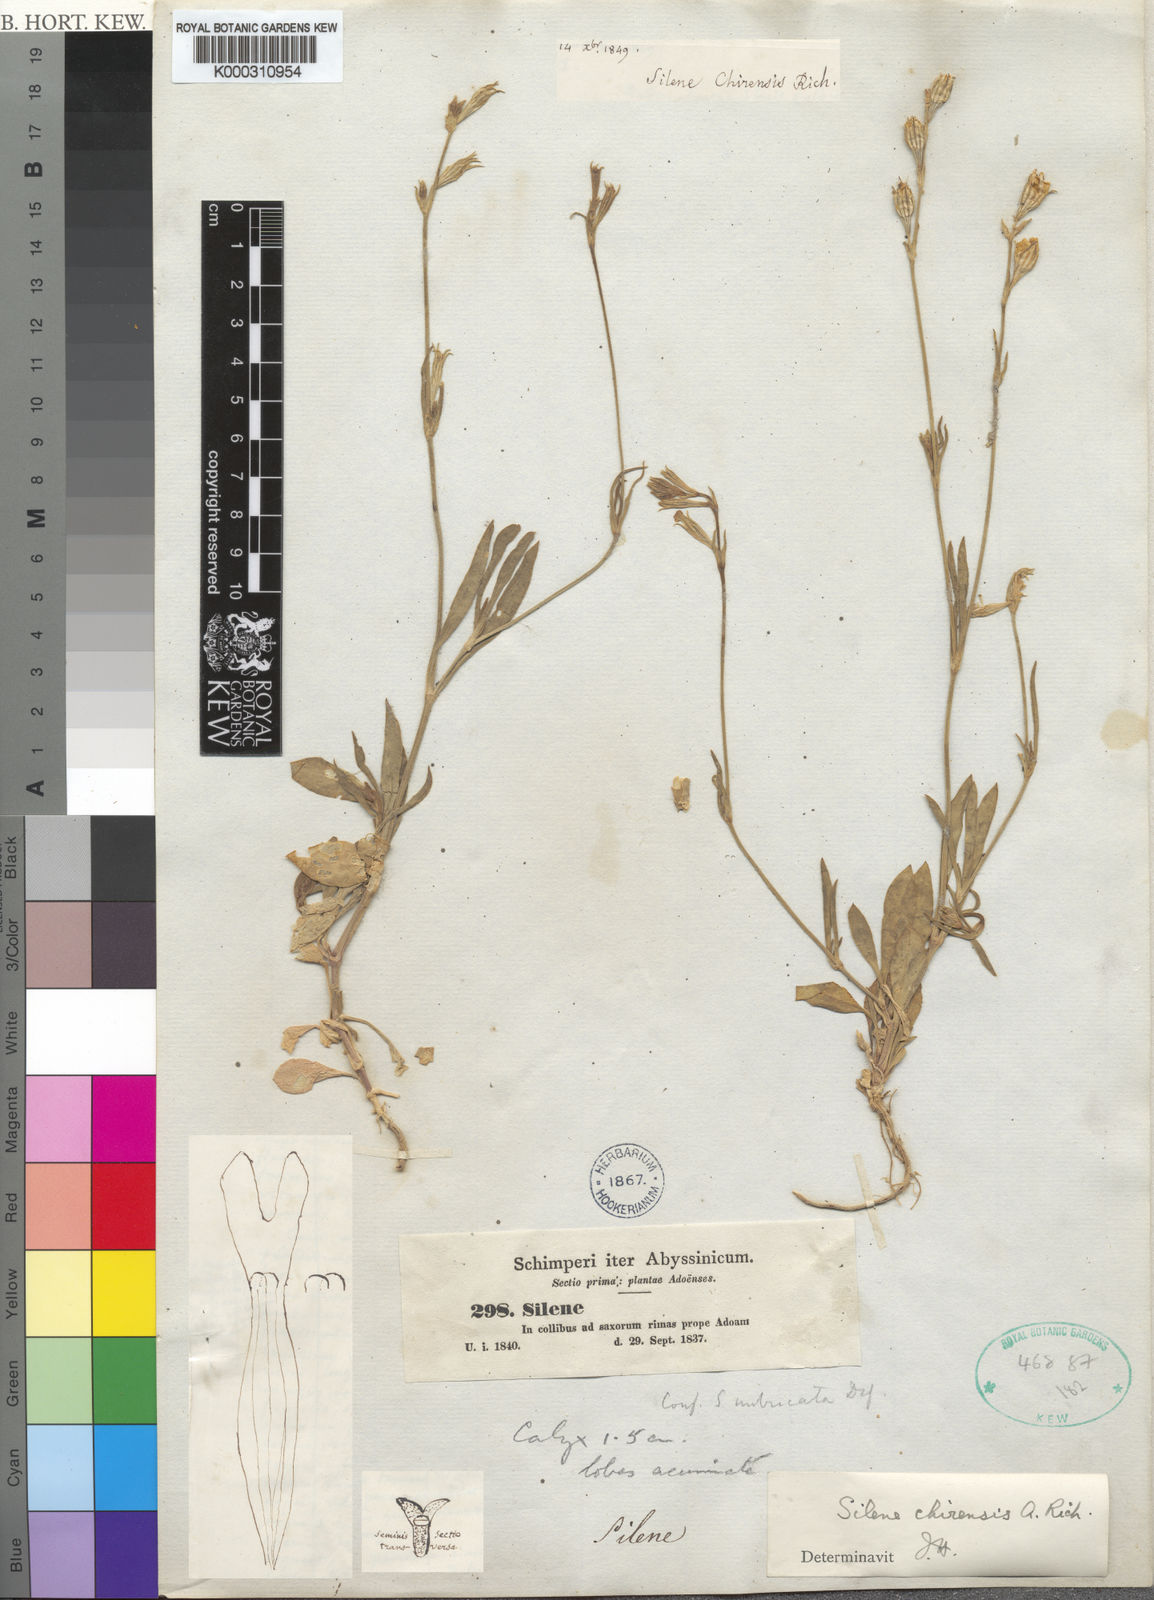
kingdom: Plantae
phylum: Tracheophyta
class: Magnoliopsida
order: Caryophyllales
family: Caryophyllaceae
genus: Silene
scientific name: Silene chirensis
